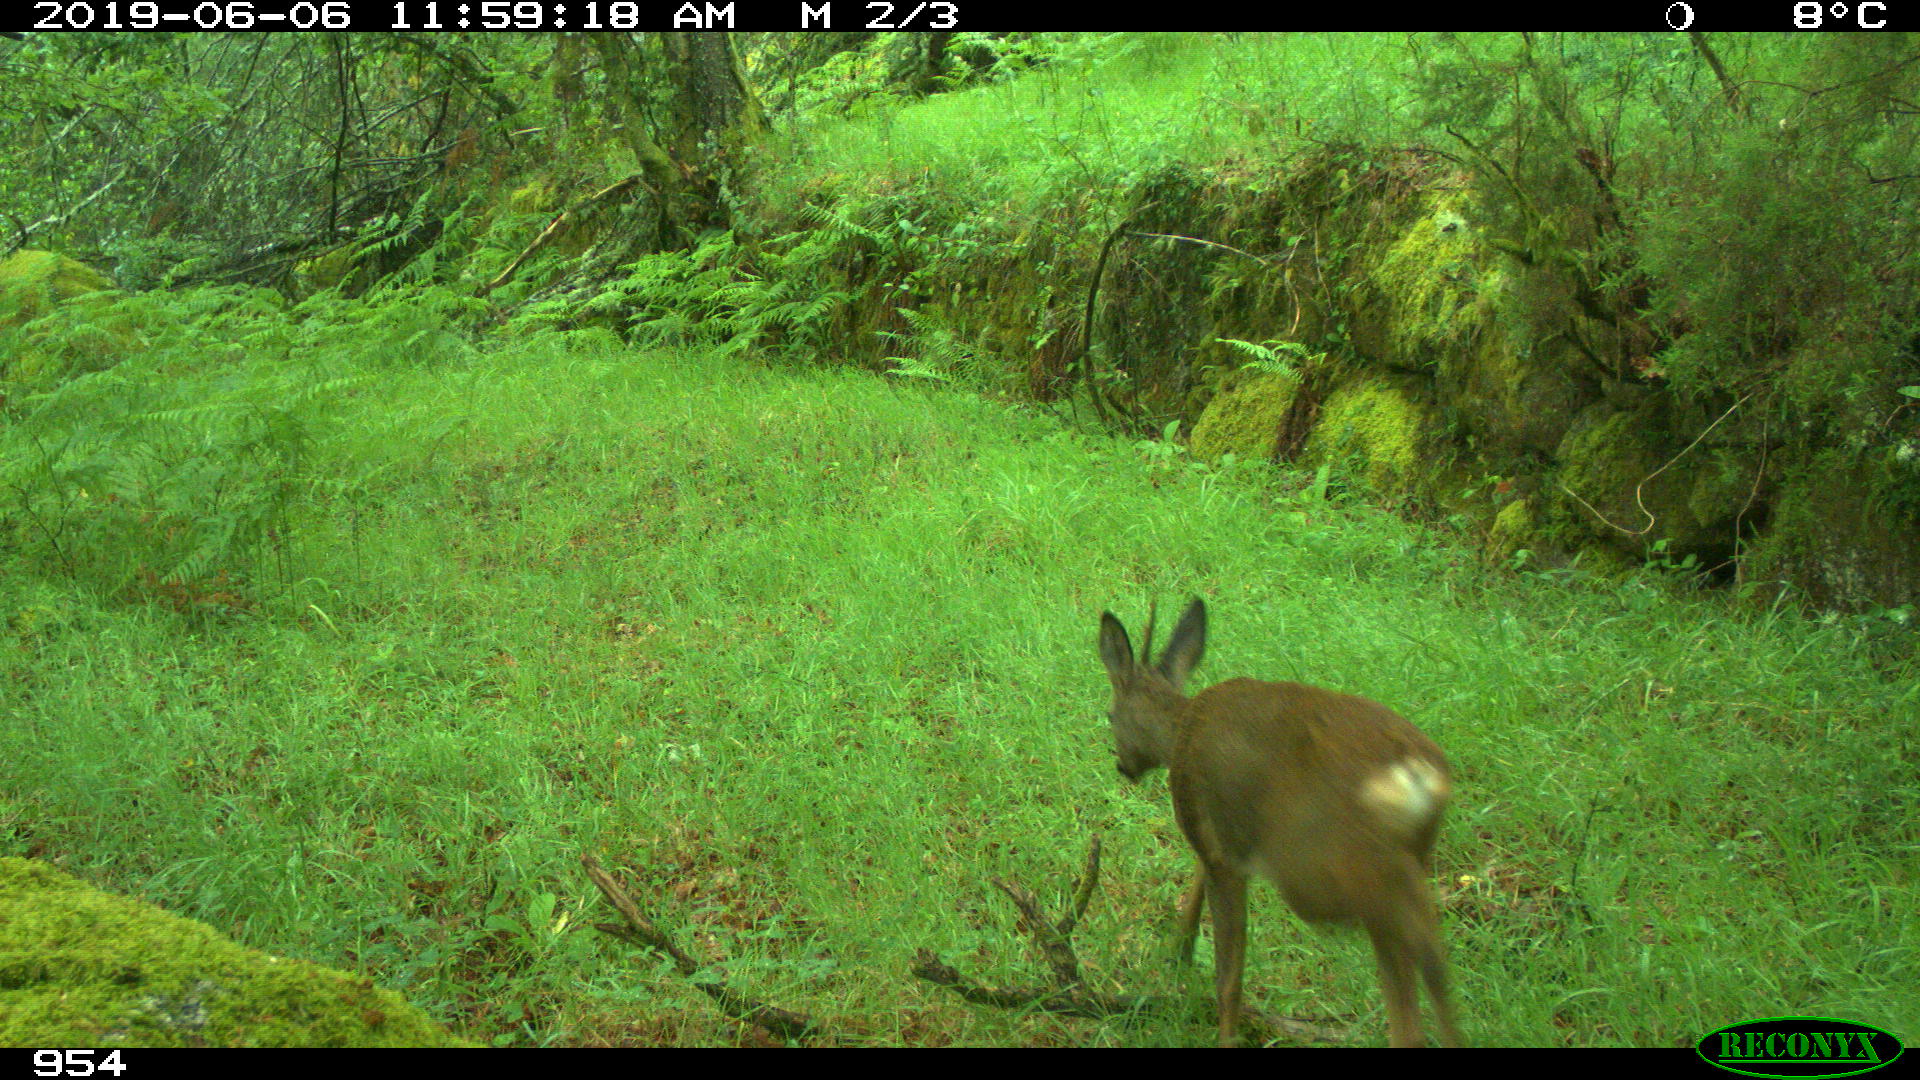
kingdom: Animalia
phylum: Chordata
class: Mammalia
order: Artiodactyla
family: Cervidae
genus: Capreolus
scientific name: Capreolus capreolus
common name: Western roe deer
